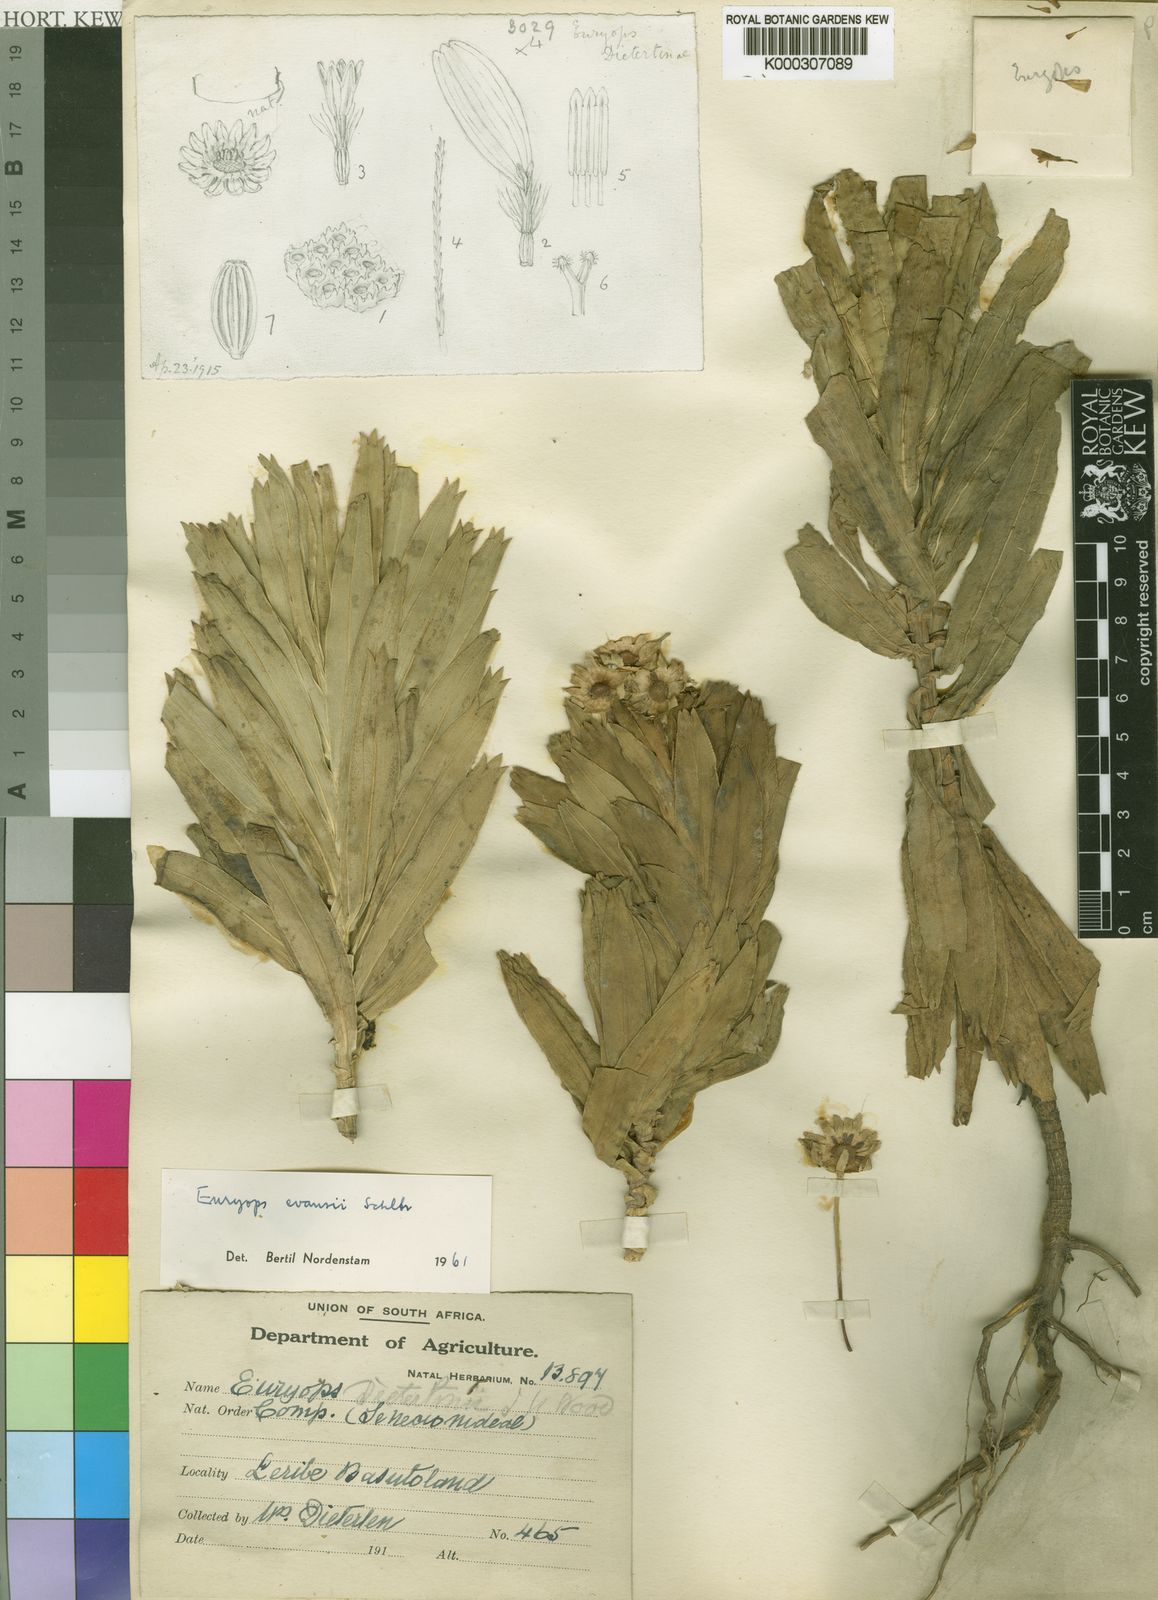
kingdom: Plantae
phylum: Tracheophyta
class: Magnoliopsida
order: Asterales
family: Asteraceae
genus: Euryops
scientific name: Euryops evansii
